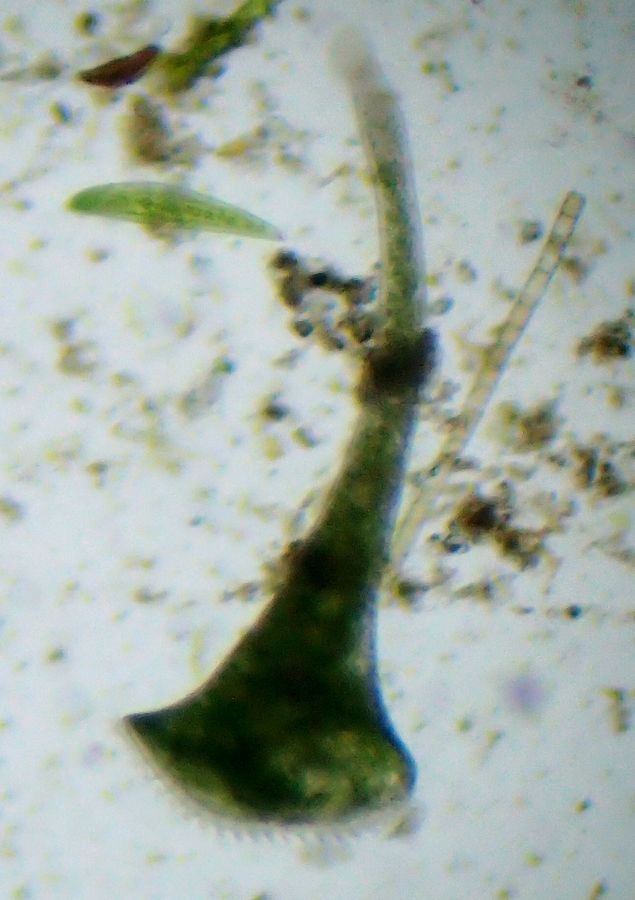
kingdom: Chromista
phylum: Ciliophora
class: Heterotrichea
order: Heterotrichida
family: Stentoridae
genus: Stentor
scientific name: Stentor polymorphus
